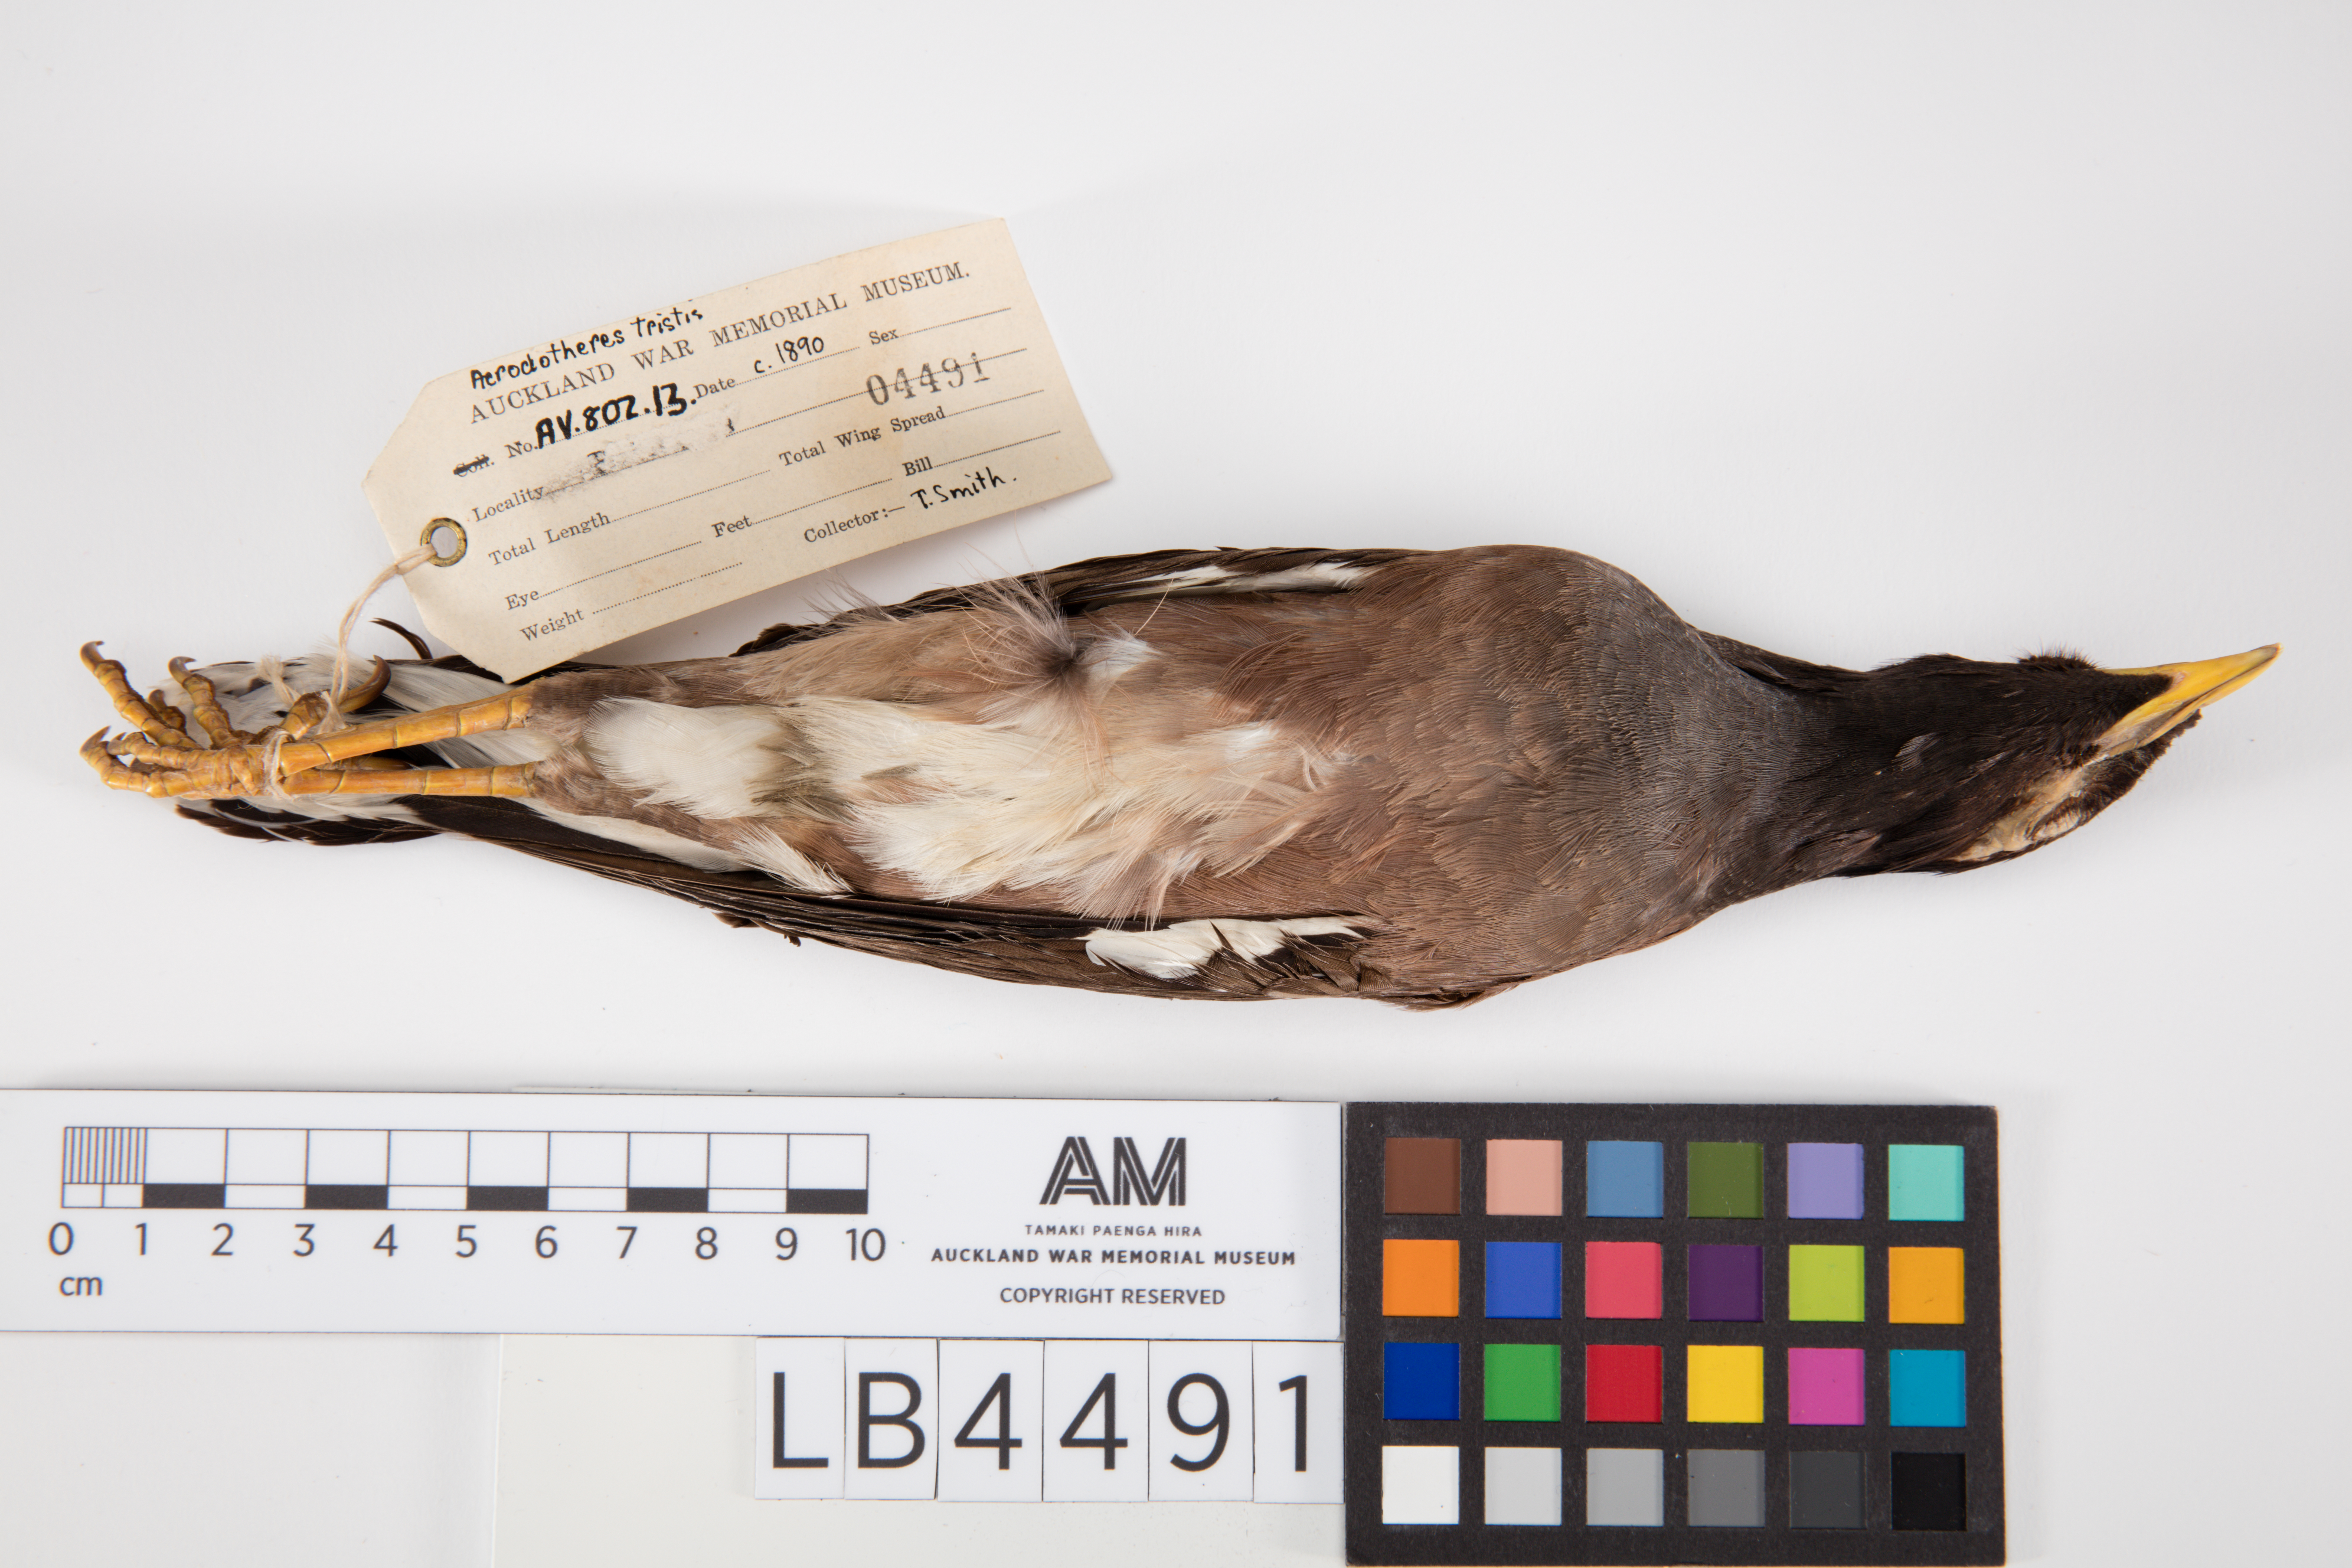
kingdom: Animalia
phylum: Chordata
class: Aves
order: Passeriformes
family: Sturnidae
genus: Acridotheres
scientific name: Acridotheres tristis
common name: Common myna
